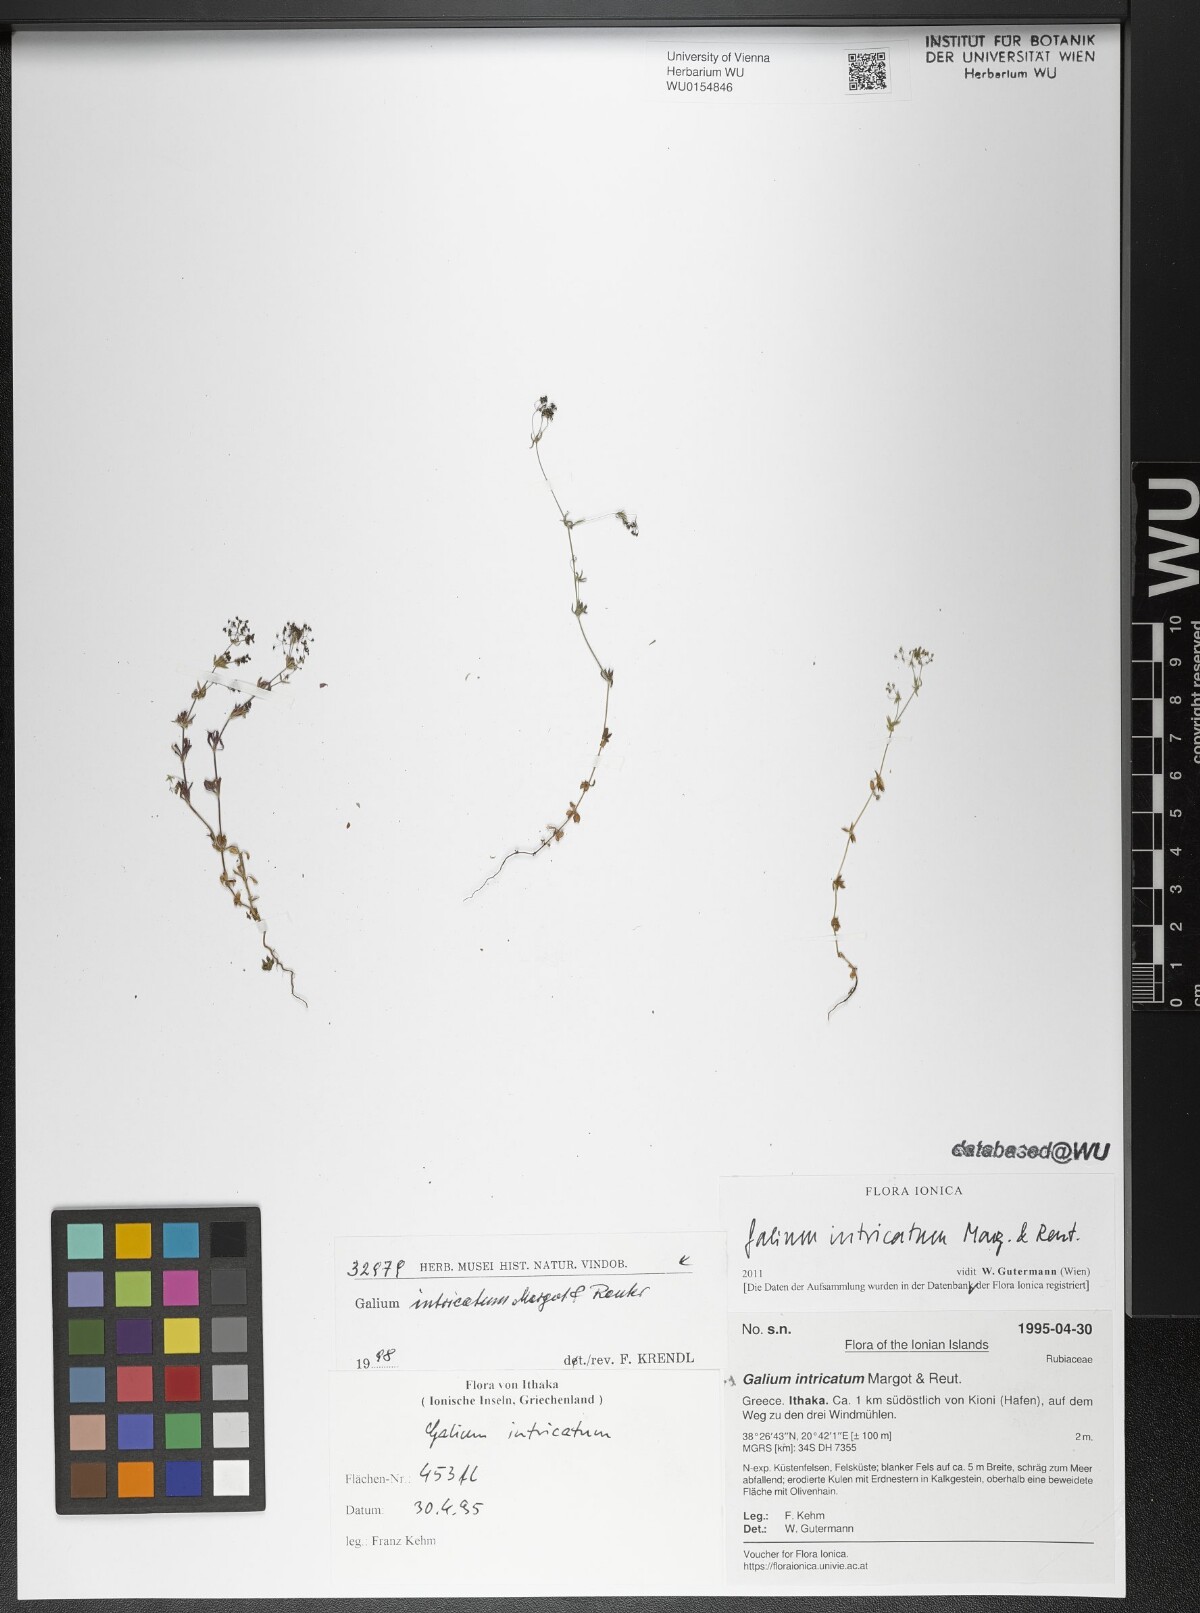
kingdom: Plantae
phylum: Tracheophyta
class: Magnoliopsida
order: Gentianales
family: Rubiaceae
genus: Galium
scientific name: Galium intricatum
